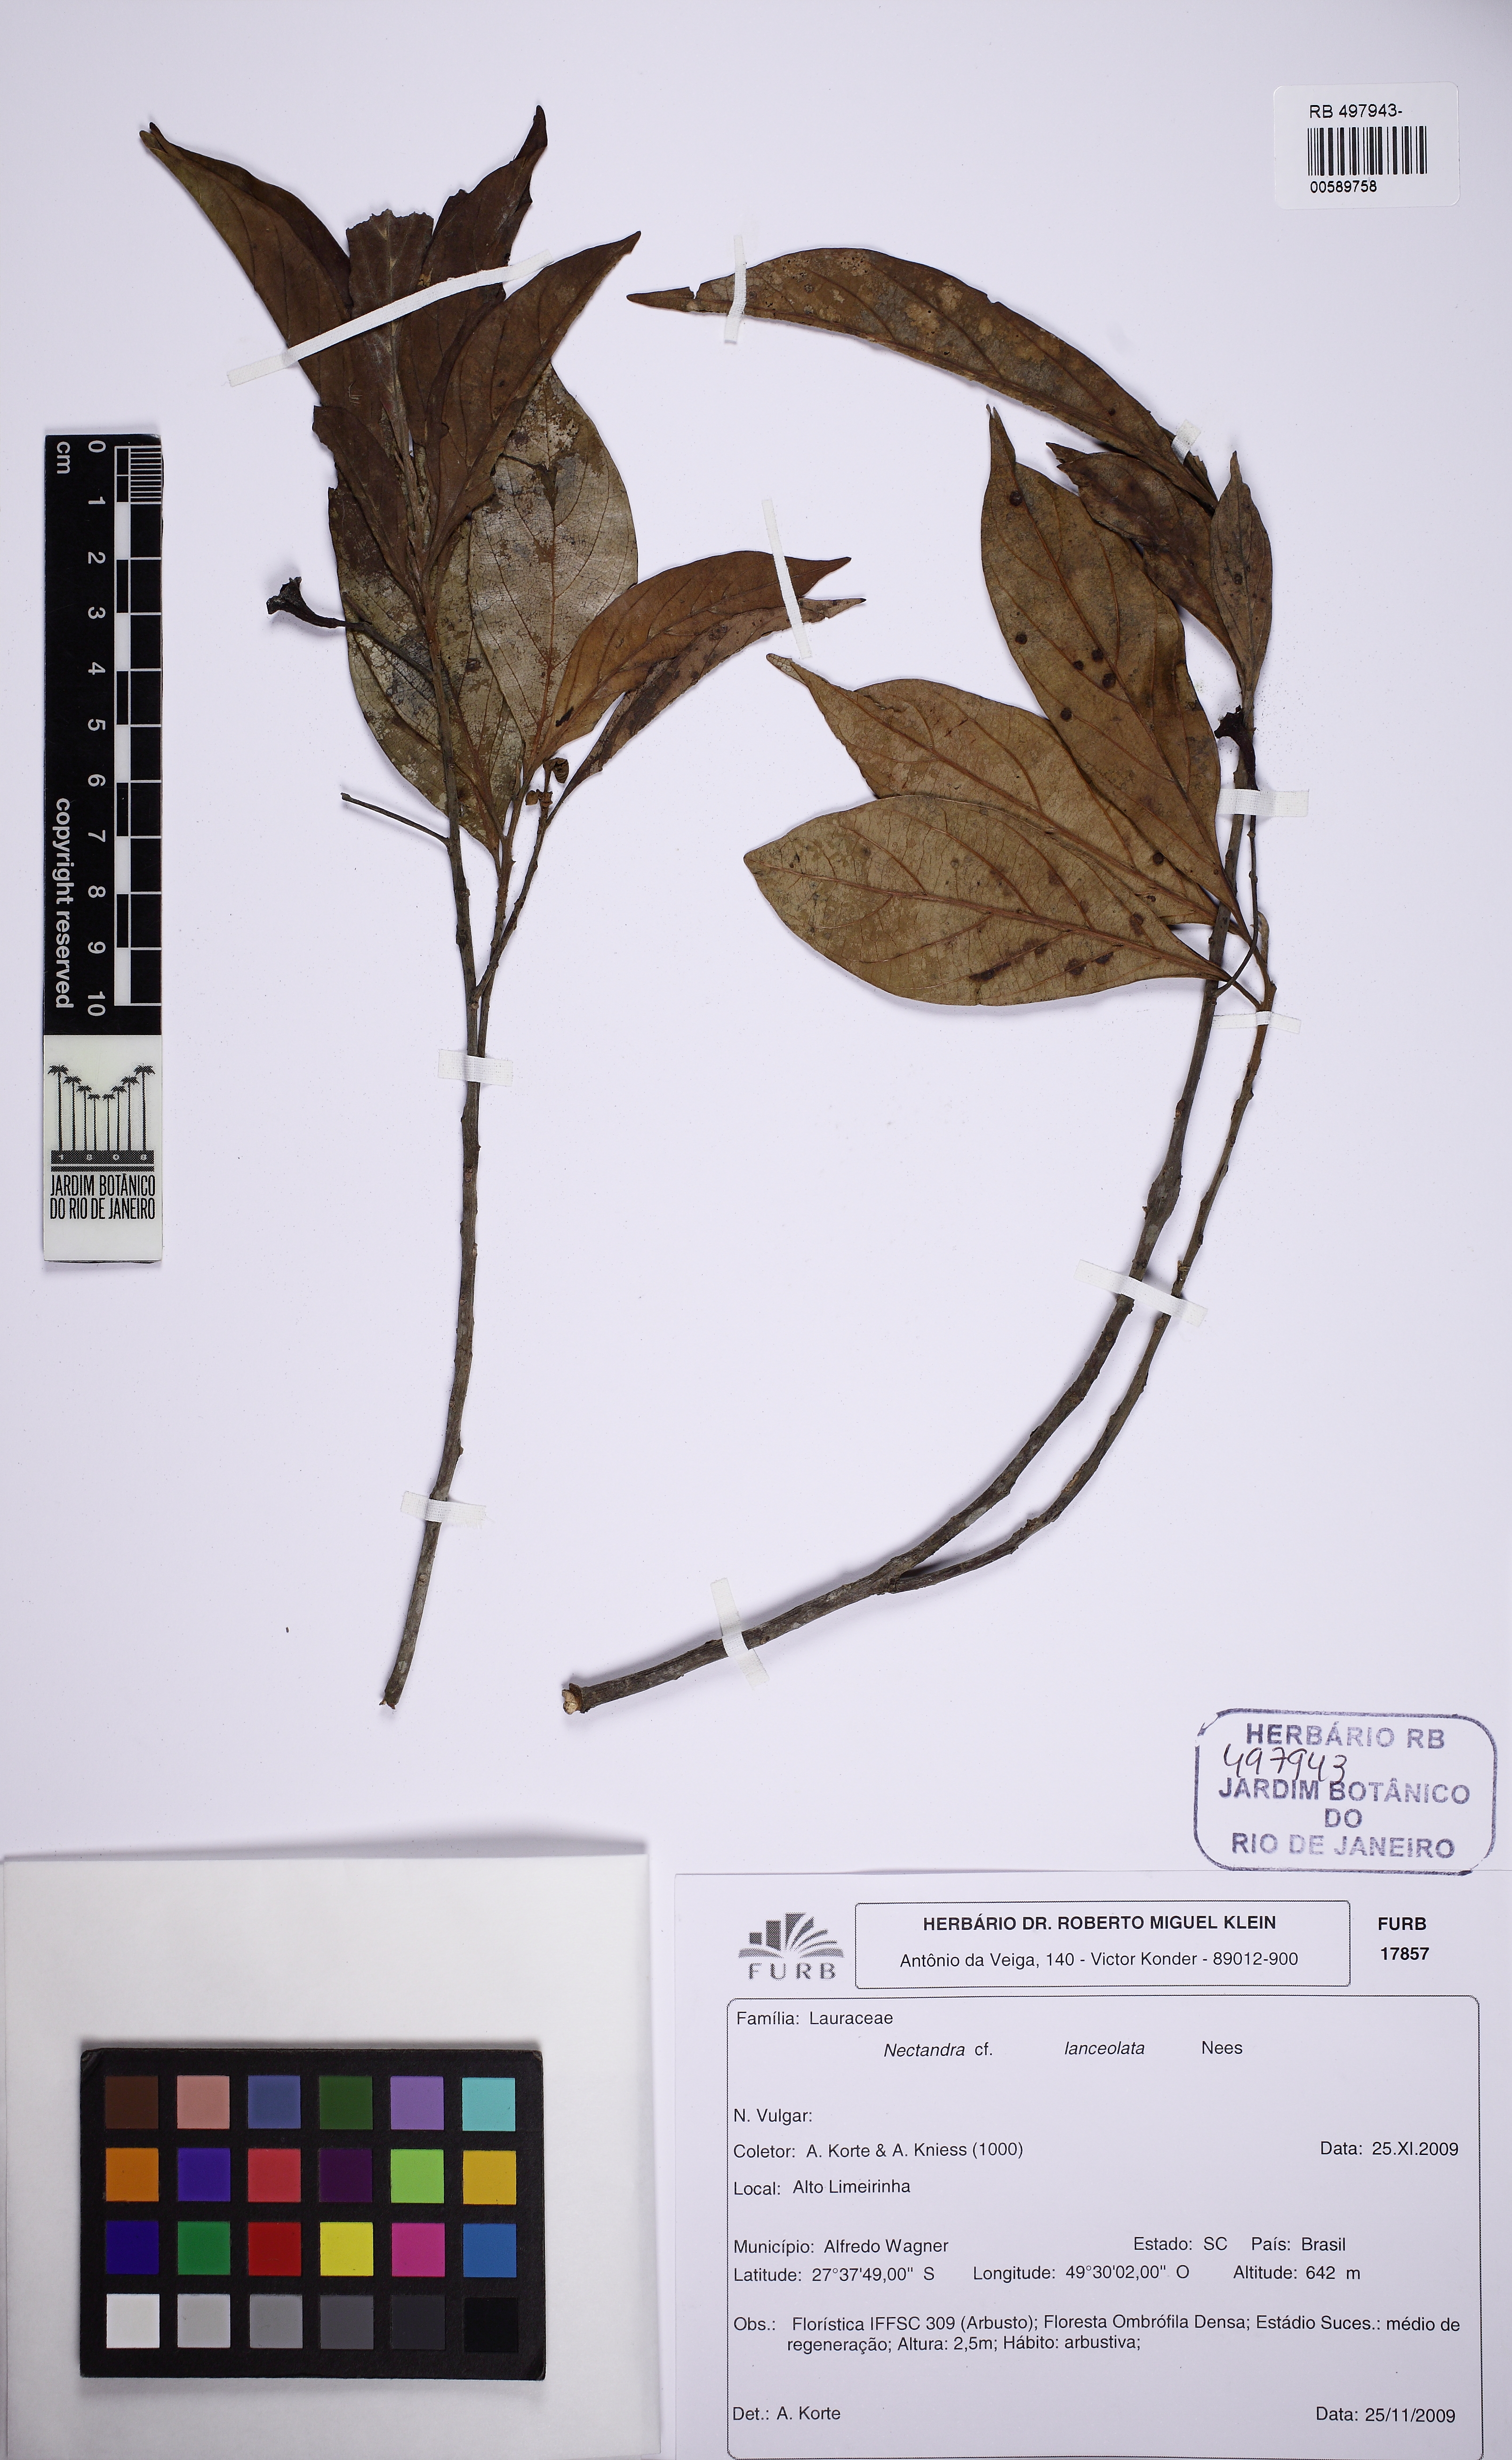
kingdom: Plantae
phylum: Tracheophyta
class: Magnoliopsida
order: Laurales
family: Lauraceae
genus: Nectandra
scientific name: Nectandra lanceolata
